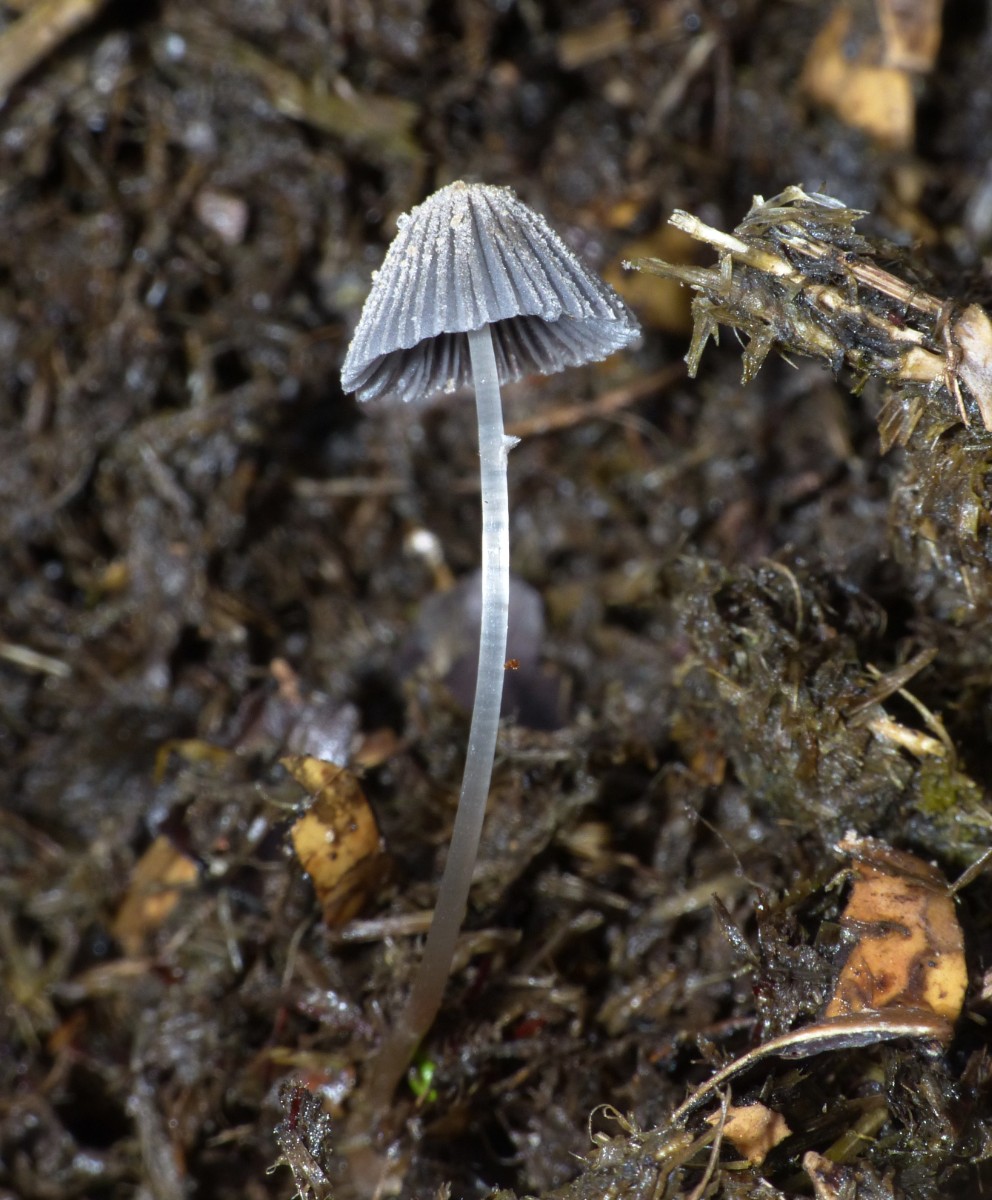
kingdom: Fungi
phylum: Basidiomycota
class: Agaricomycetes
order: Agaricales
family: Psathyrellaceae
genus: Narcissea
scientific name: Narcissea ephemeroides
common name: ring-blækhat
